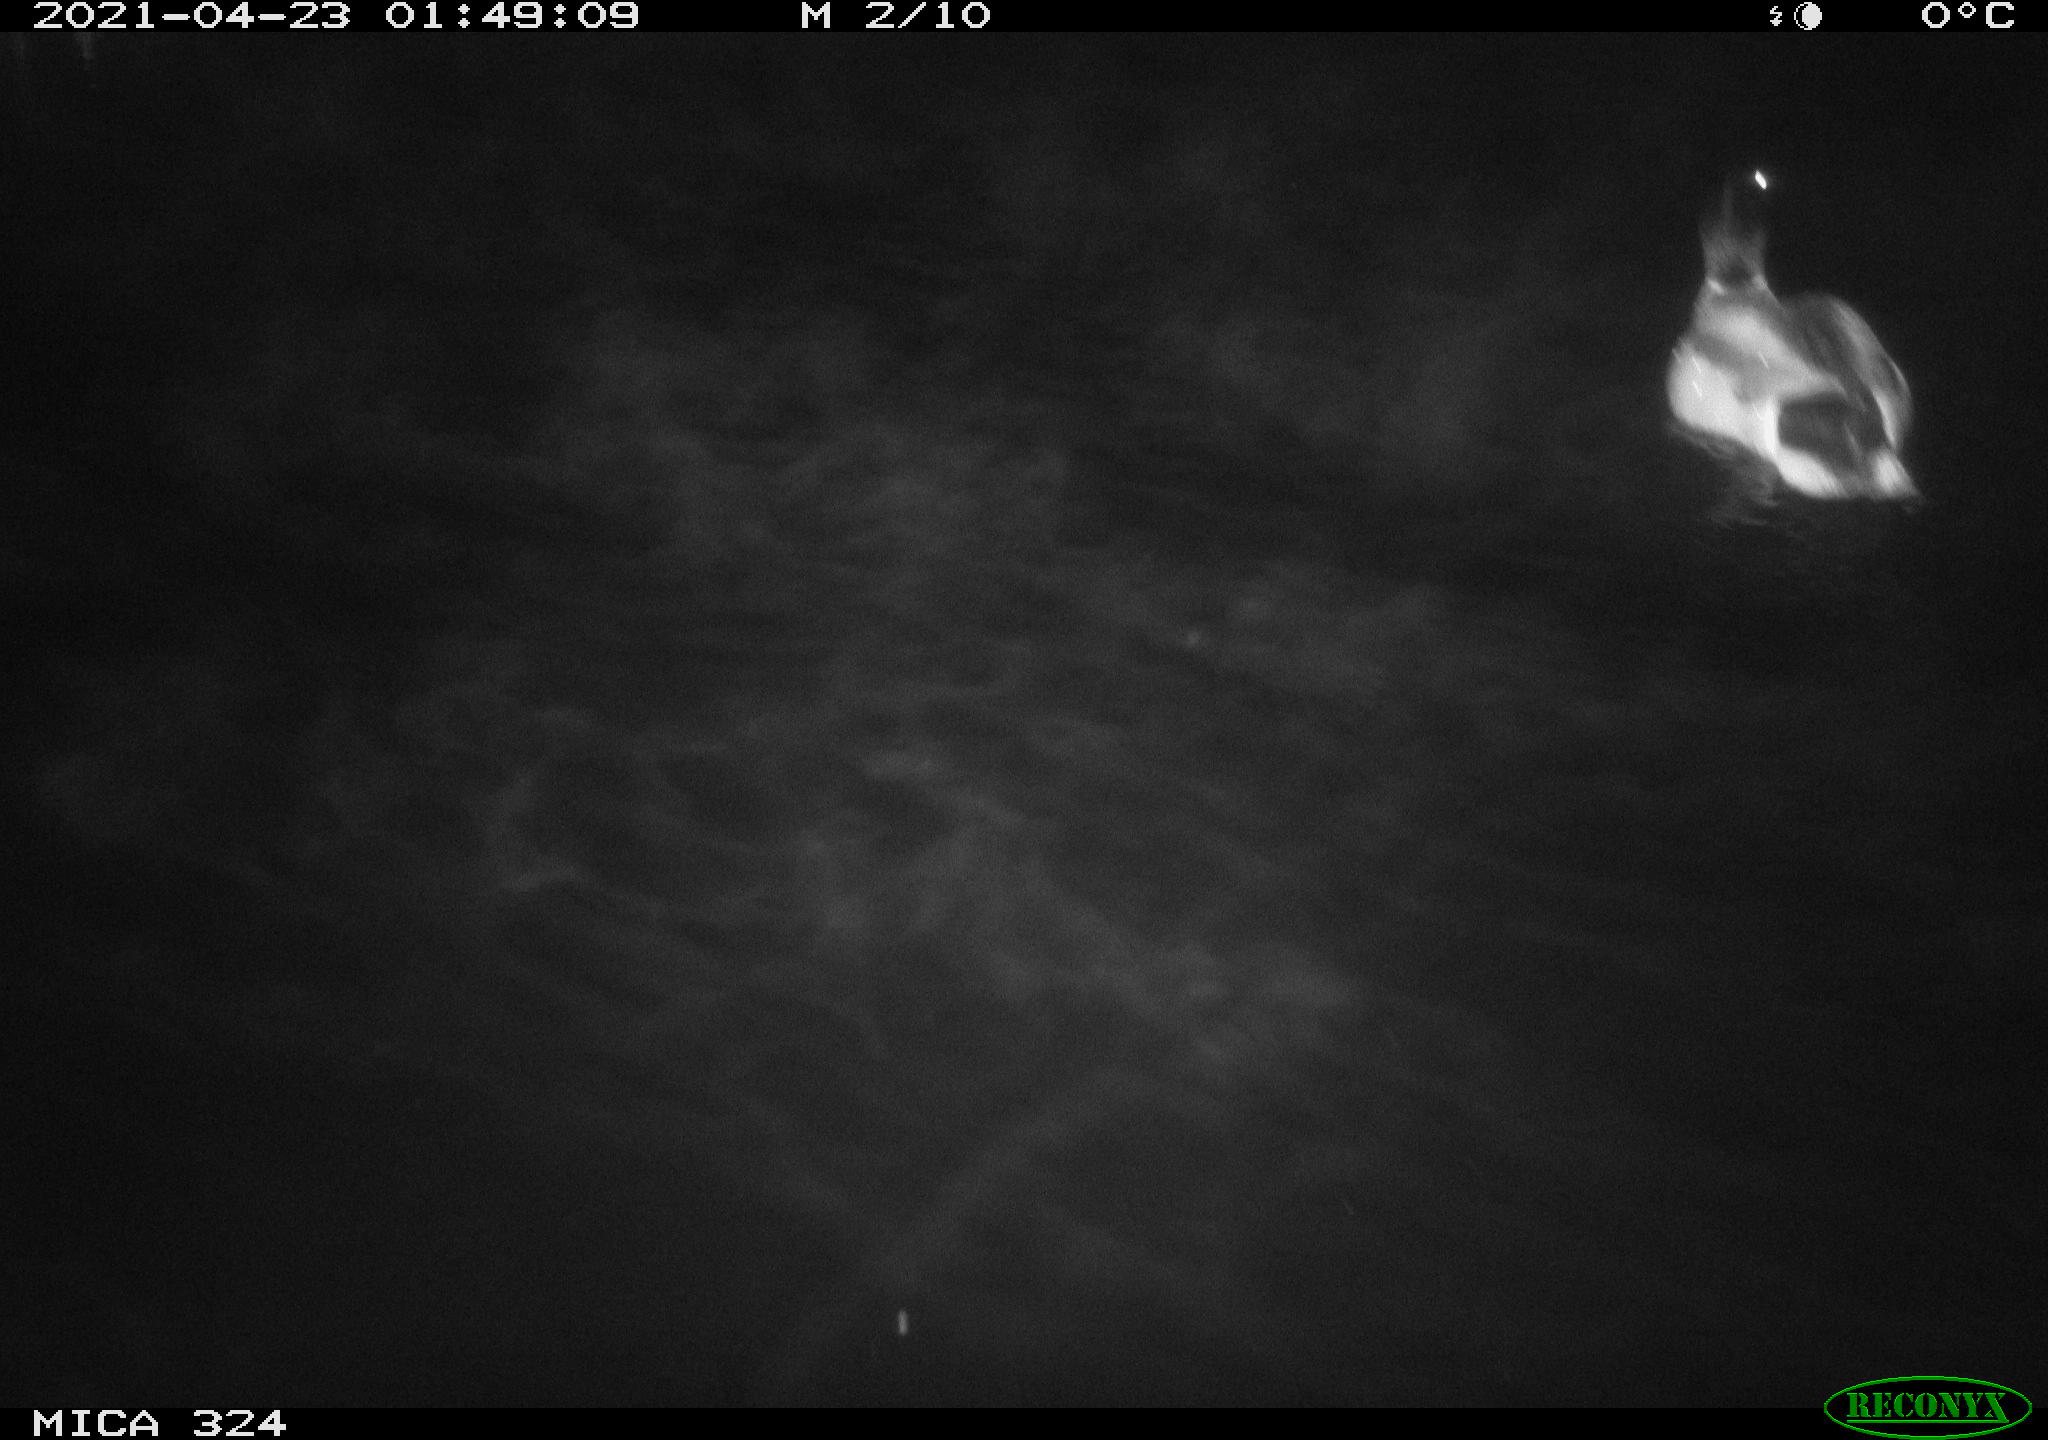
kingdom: Animalia
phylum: Chordata
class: Aves
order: Anseriformes
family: Anatidae
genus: Anas
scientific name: Anas platyrhynchos
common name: Mallard
